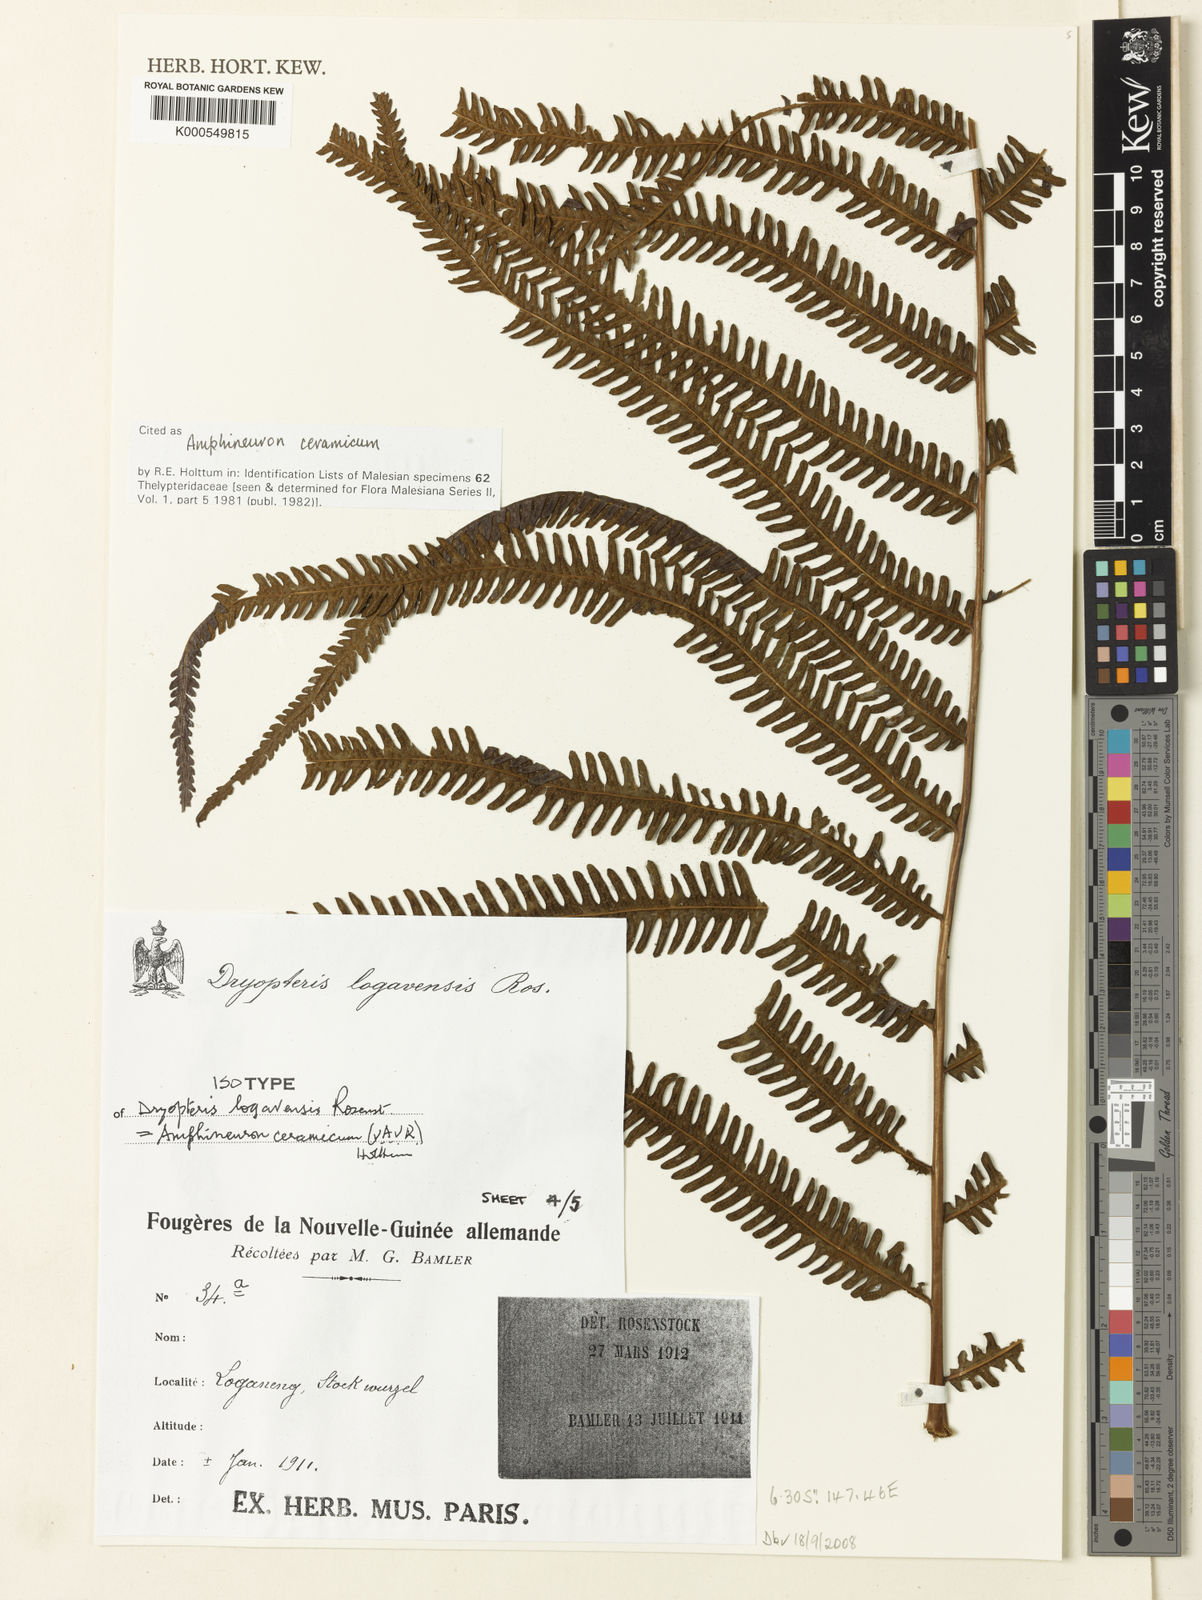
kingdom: Plantae
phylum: Tracheophyta
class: Polypodiopsida
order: Polypodiales
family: Thelypteridaceae
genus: Mesopteris
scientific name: Mesopteris ceramica
